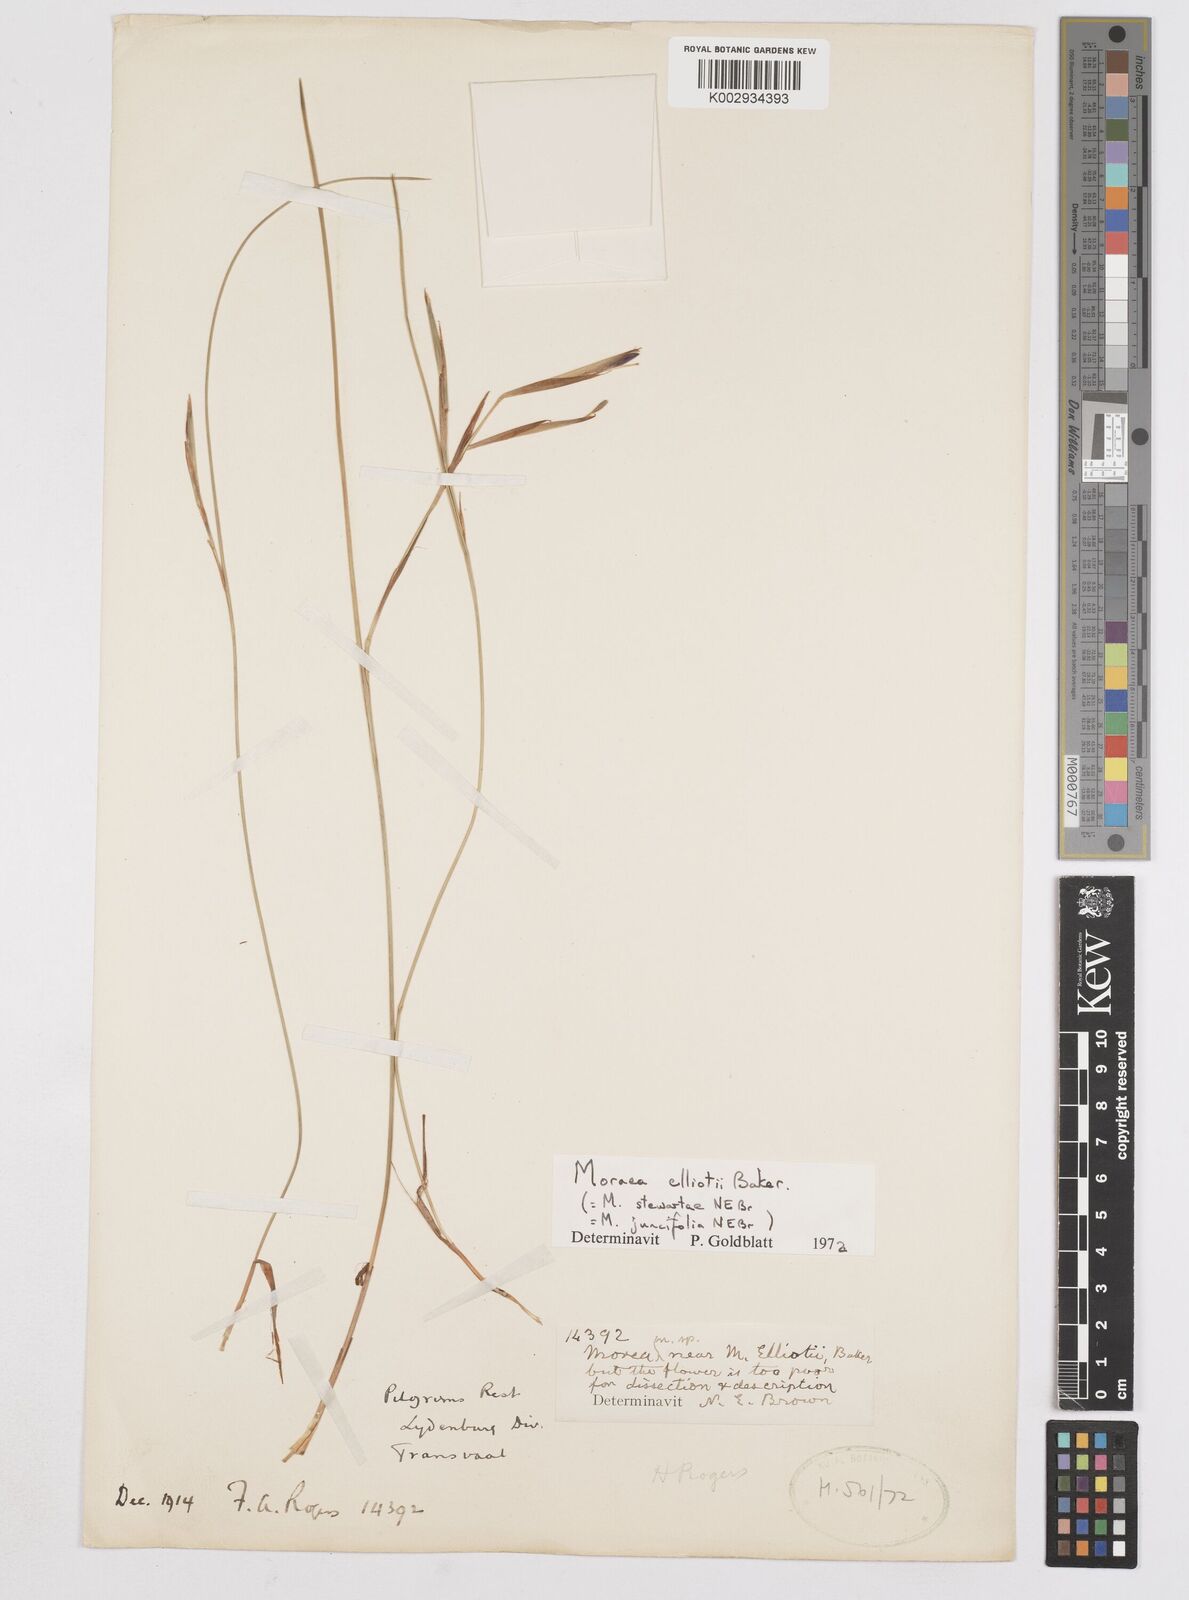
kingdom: Plantae
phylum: Tracheophyta
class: Liliopsida
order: Asparagales
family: Iridaceae
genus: Moraea
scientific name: Moraea elliotii
